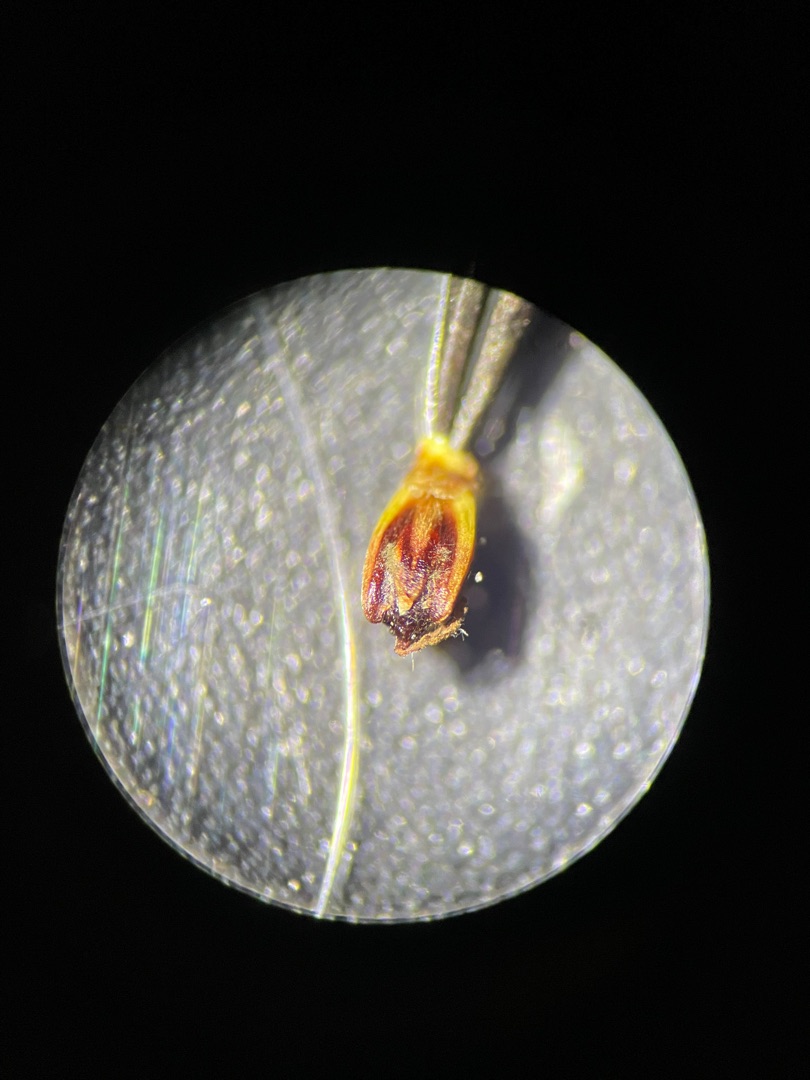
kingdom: Plantae
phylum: Tracheophyta
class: Liliopsida
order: Poales
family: Juncaceae
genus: Juncus
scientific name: Juncus gerardi
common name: Harril
